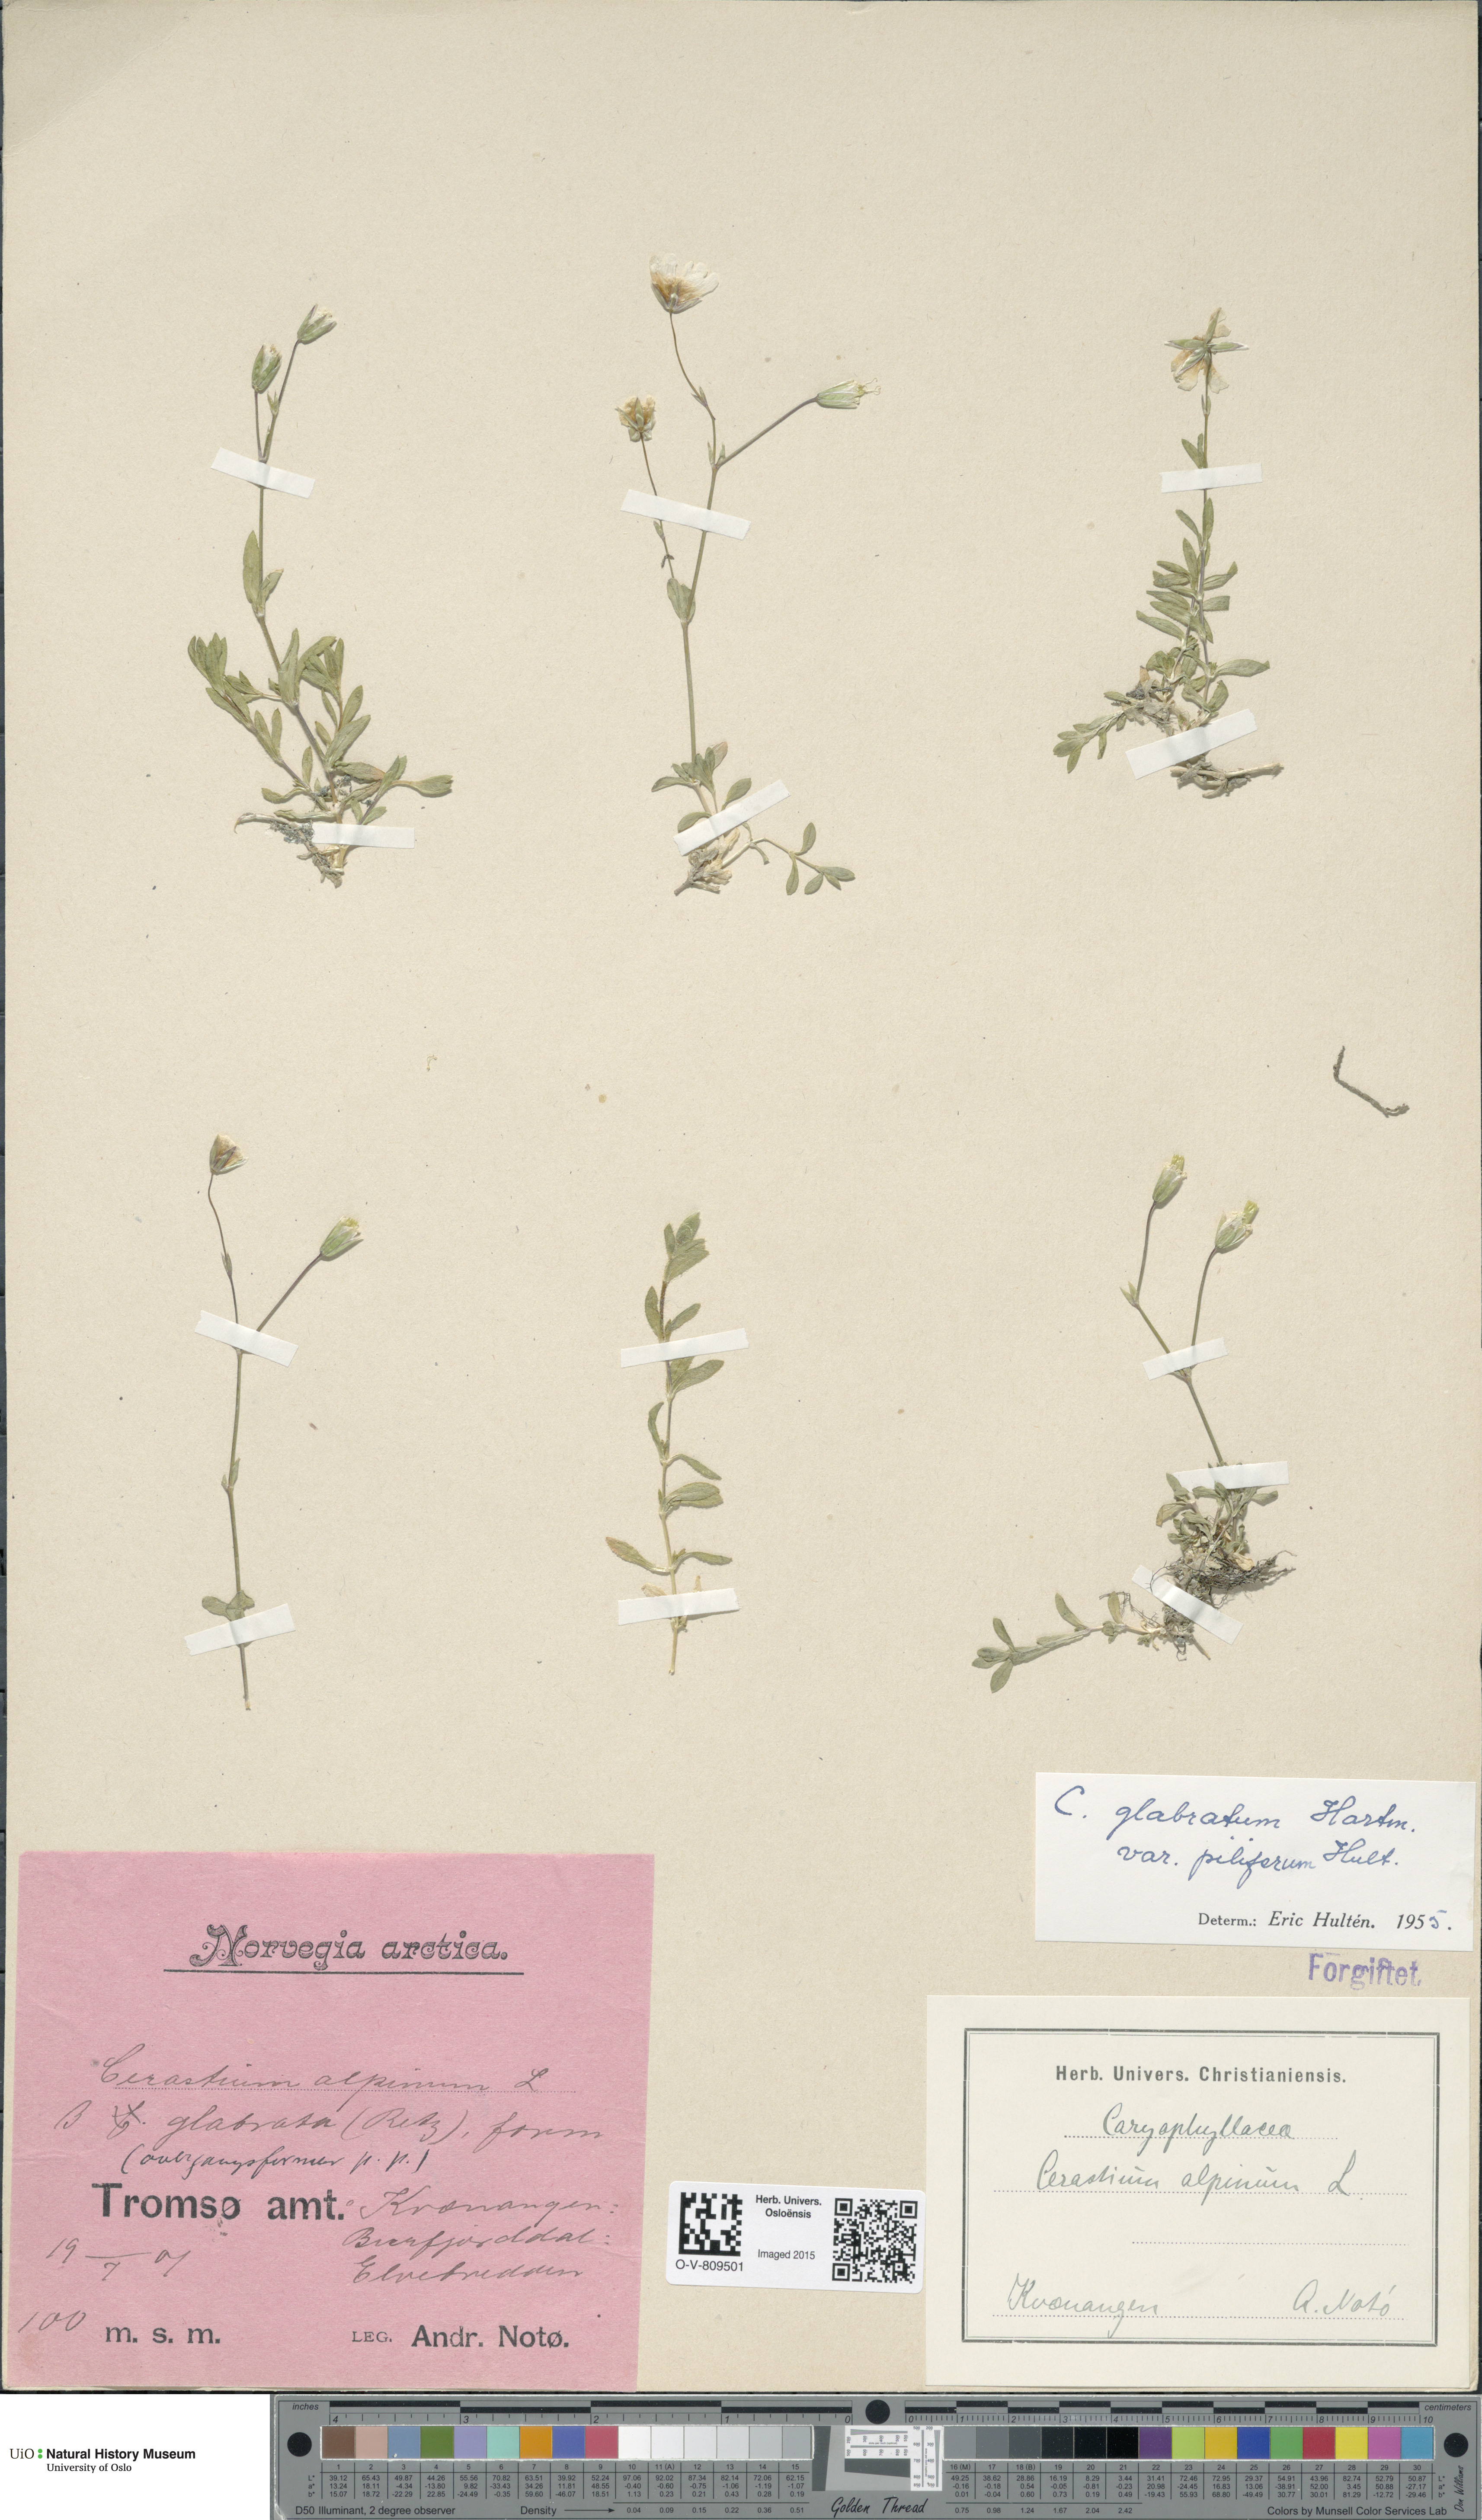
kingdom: Plantae
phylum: Tracheophyta
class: Magnoliopsida
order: Caryophyllales
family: Caryophyllaceae
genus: Cerastium
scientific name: Cerastium alpinum
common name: Alpine mouse-ear
